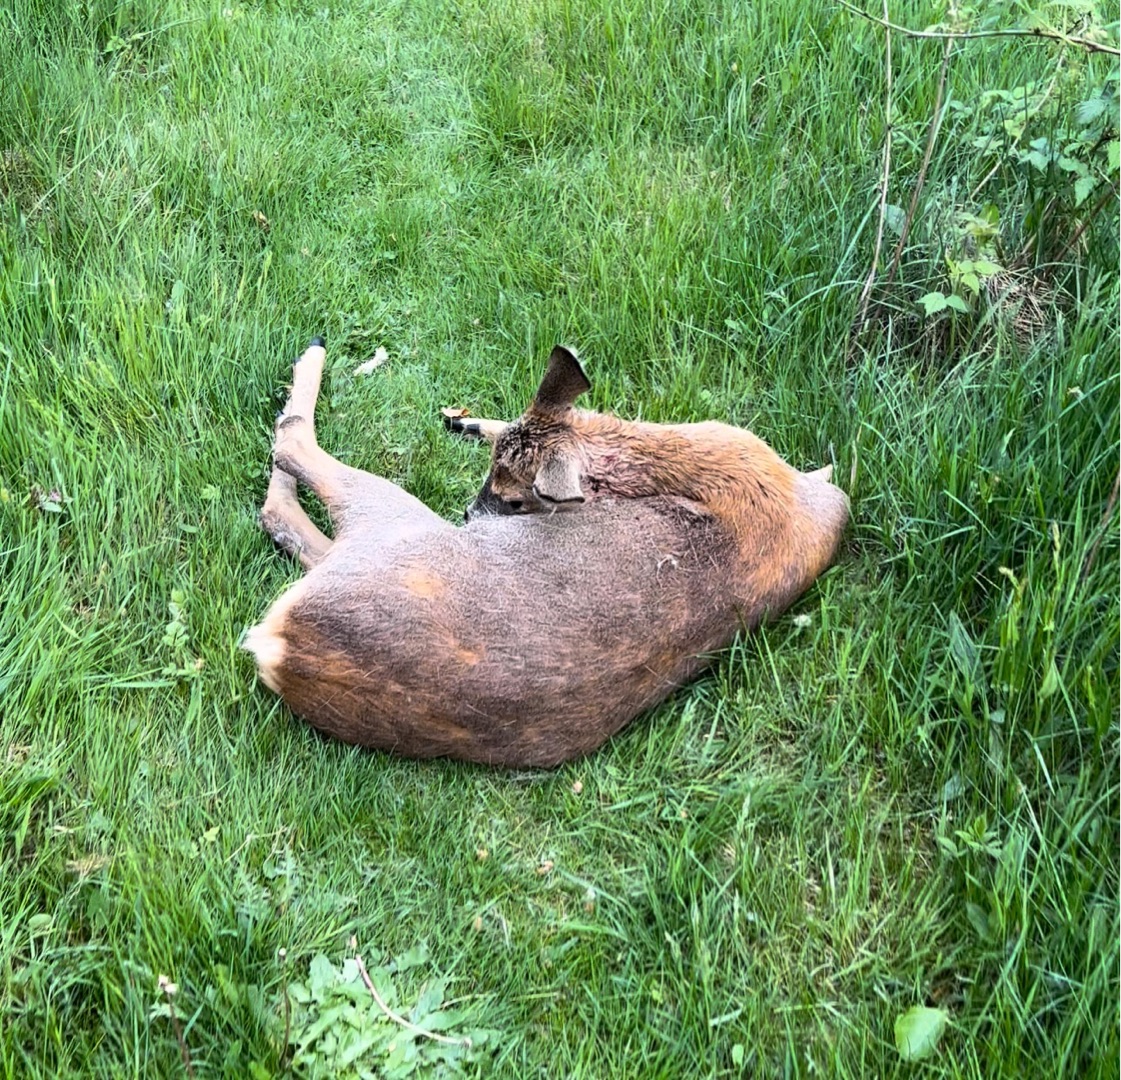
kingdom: Animalia
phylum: Chordata
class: Mammalia
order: Artiodactyla
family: Cervidae
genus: Capreolus
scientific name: Capreolus capreolus
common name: Rådyr
